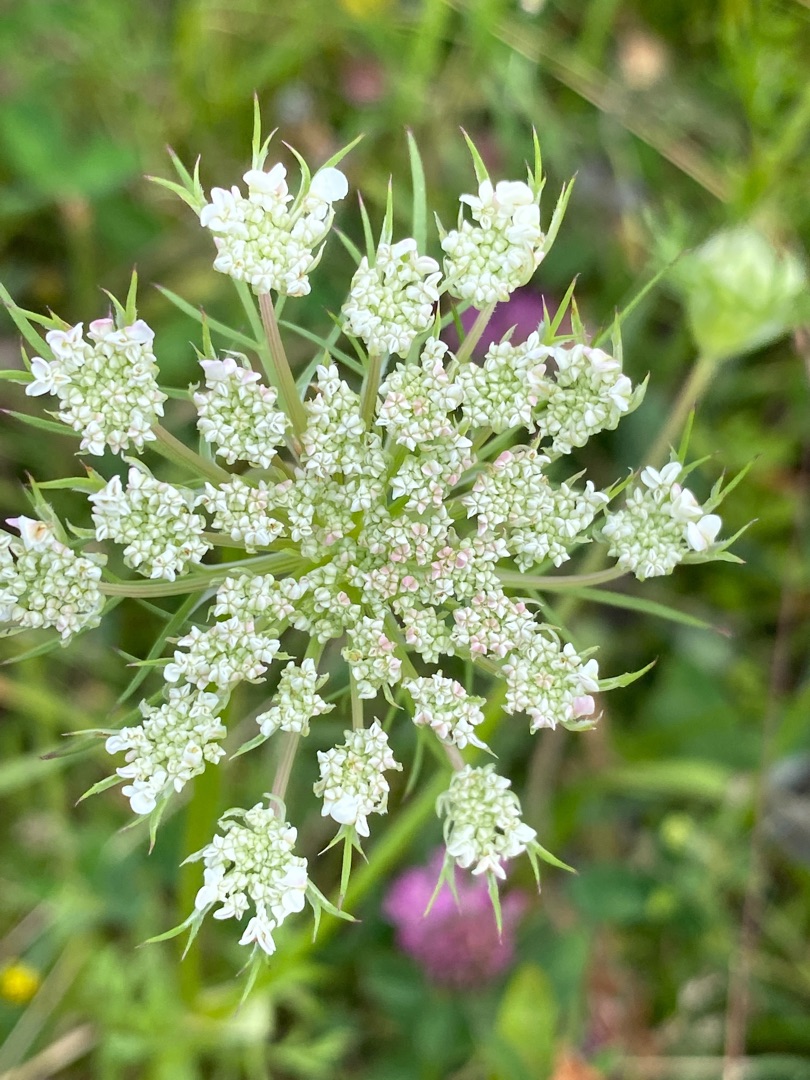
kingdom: Plantae
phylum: Tracheophyta
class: Magnoliopsida
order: Apiales
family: Apiaceae
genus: Daucus
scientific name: Daucus carota
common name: Vild gulerod
